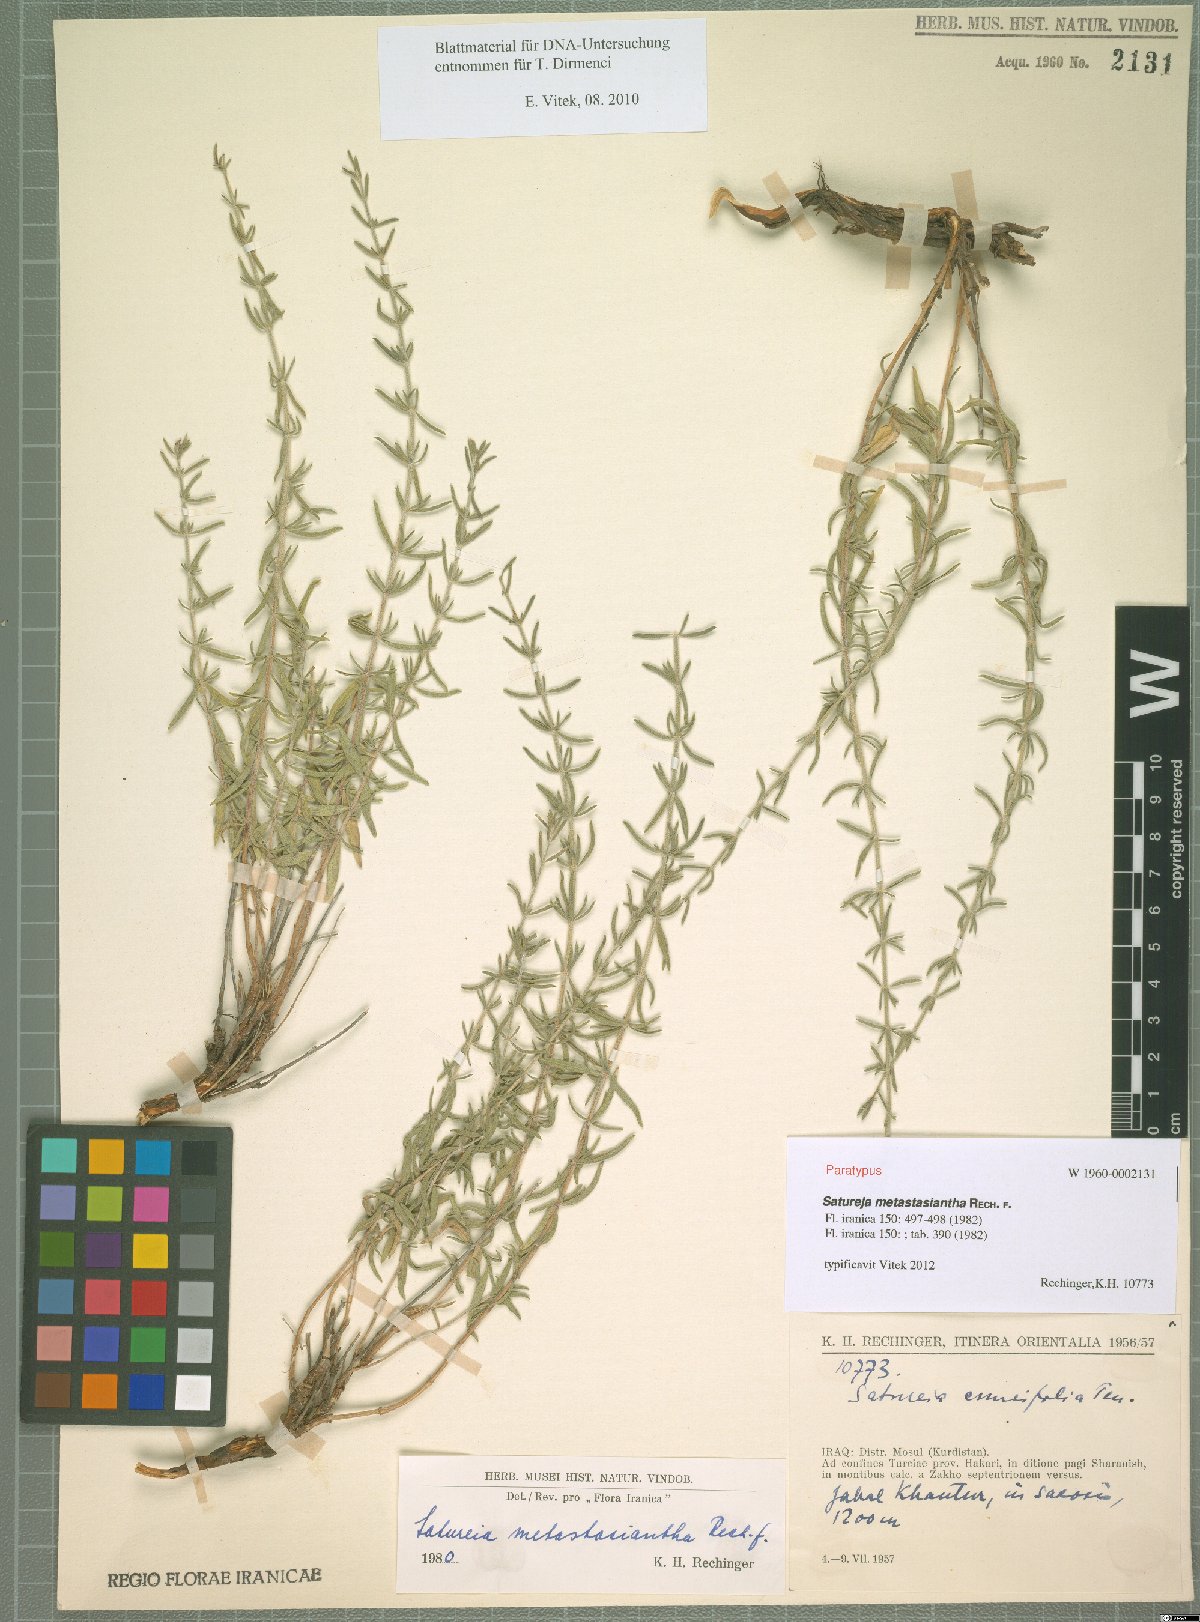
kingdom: Plantae
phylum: Tracheophyta
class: Magnoliopsida
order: Lamiales
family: Lamiaceae
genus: Satureja
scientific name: Satureja metastasiantha
